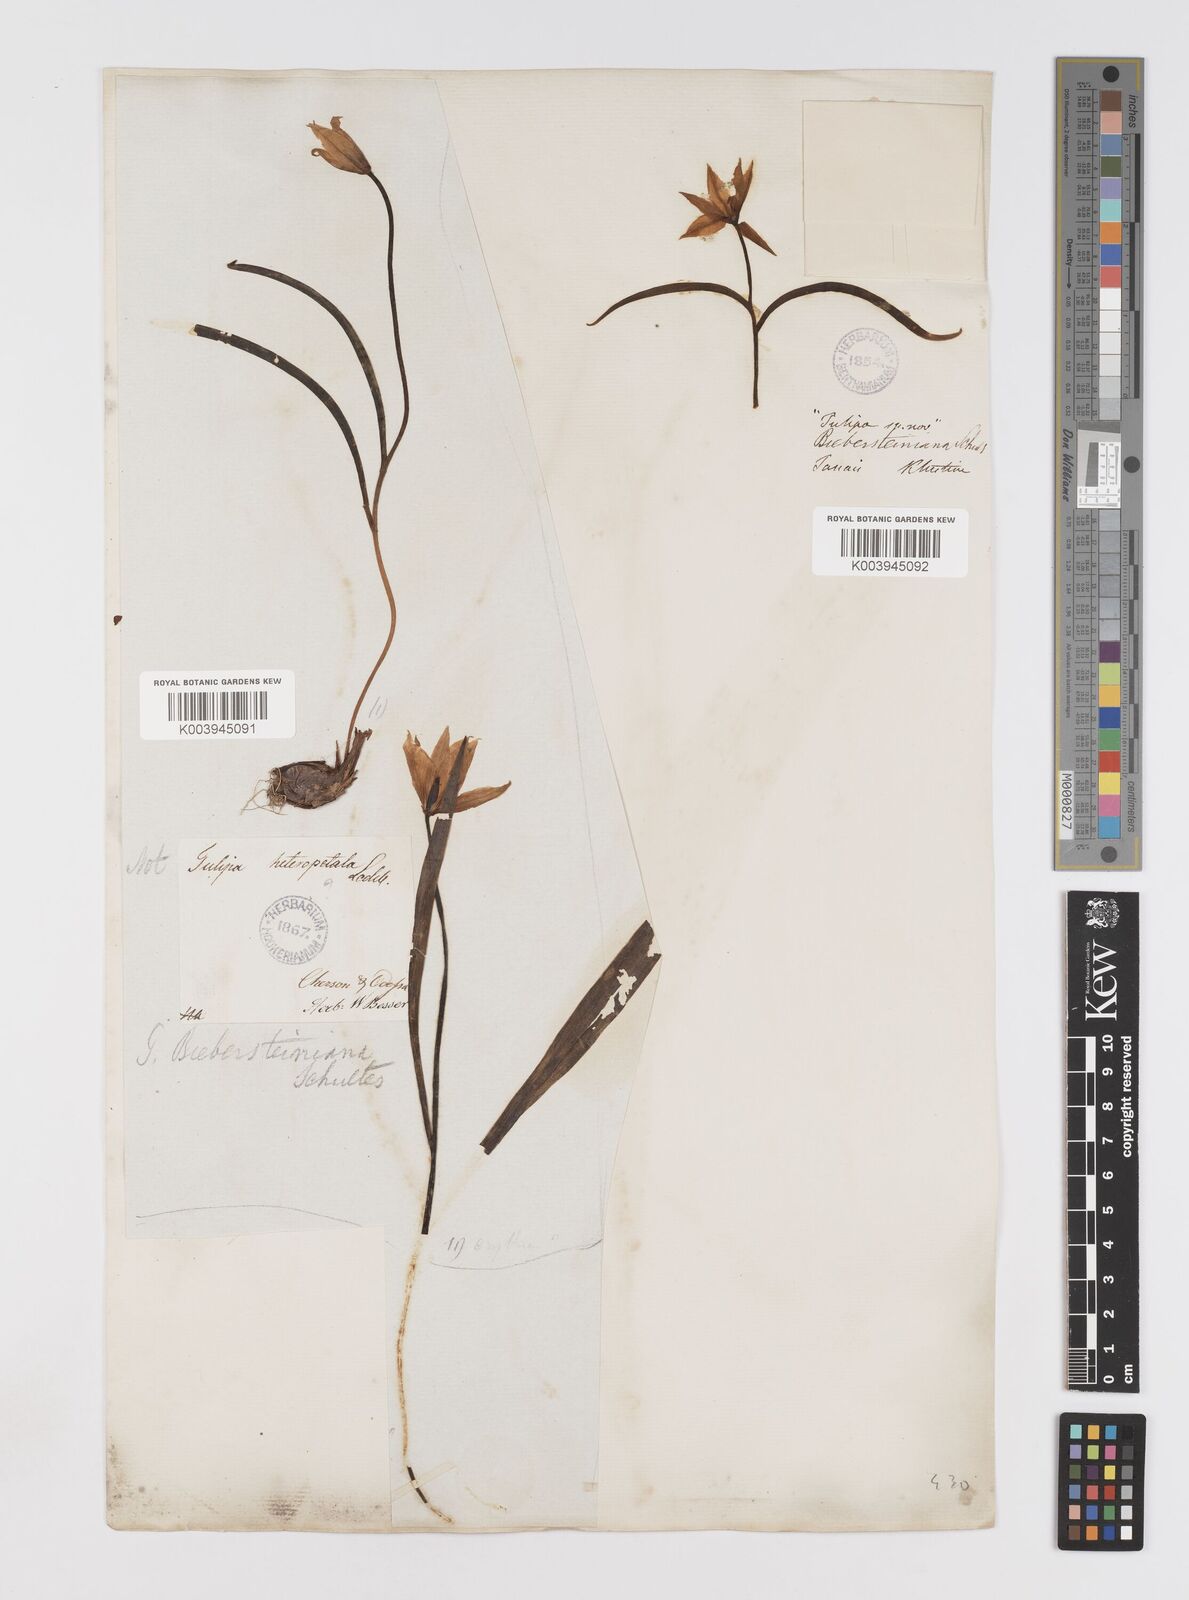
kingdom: Plantae
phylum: Tracheophyta
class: Liliopsida
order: Liliales
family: Liliaceae
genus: Tulipa
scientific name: Tulipa sylvestris
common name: Wild tulip
